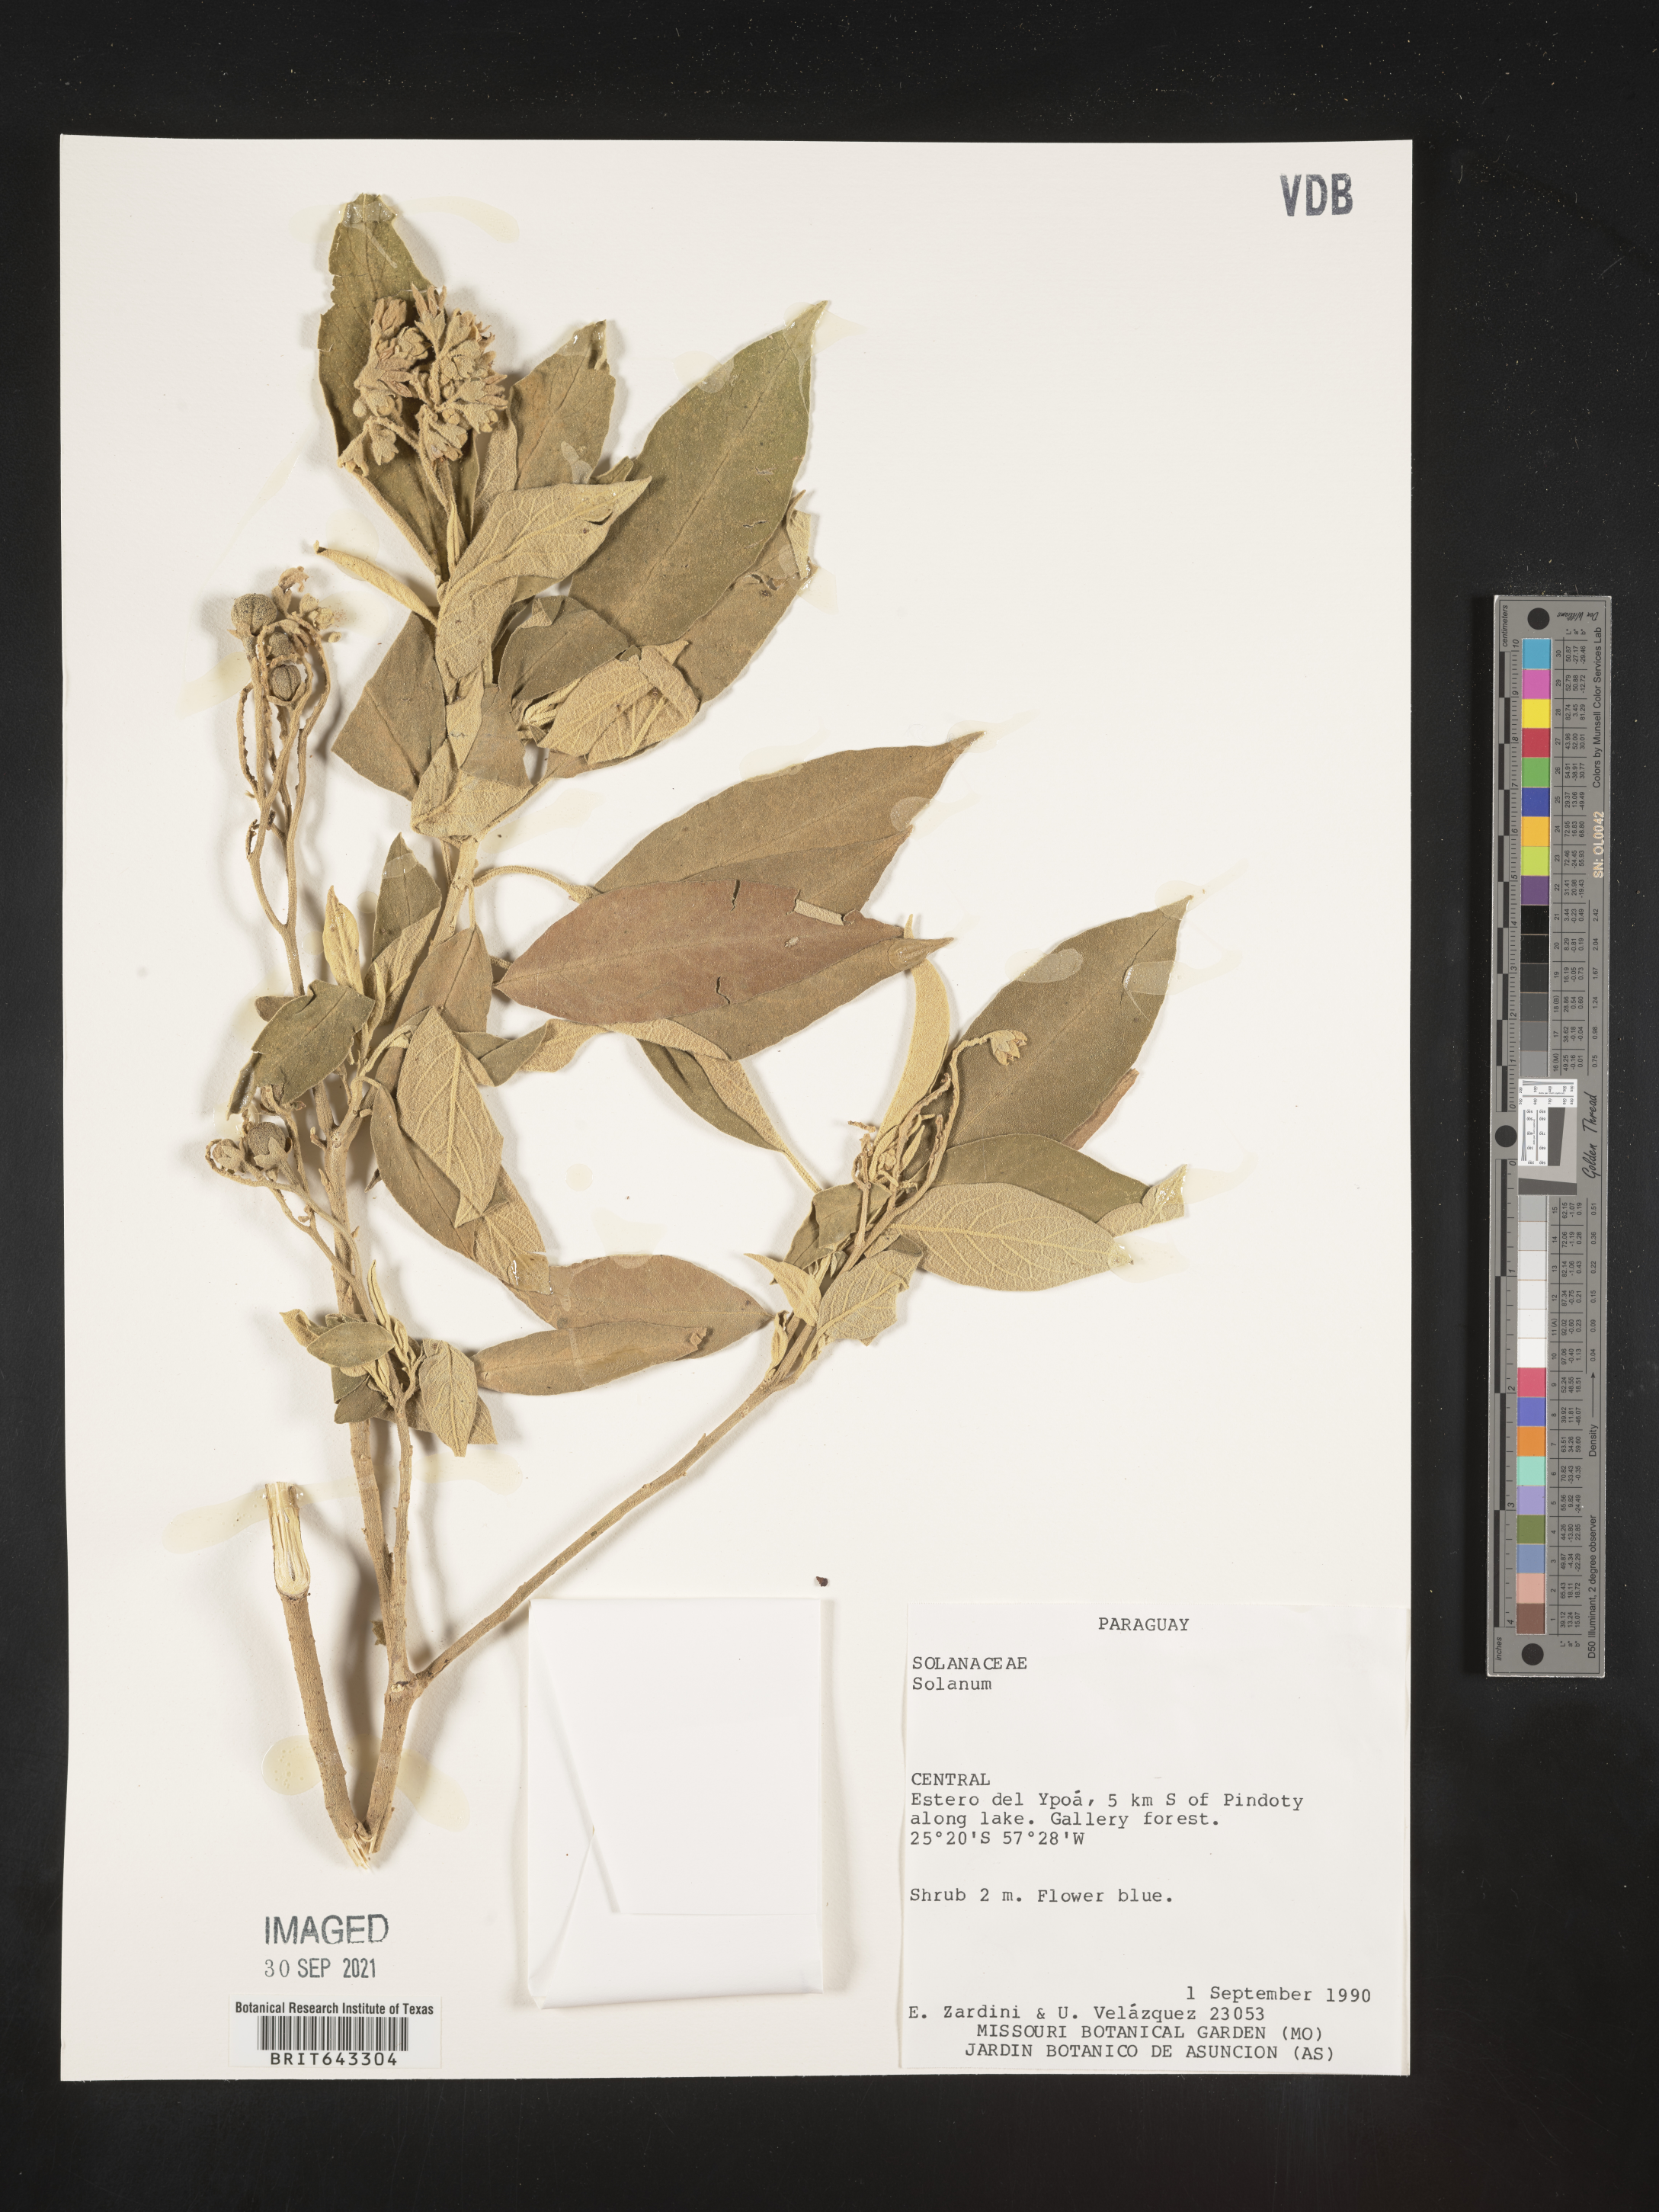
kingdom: Plantae
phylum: Tracheophyta
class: Magnoliopsida
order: Solanales
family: Solanaceae
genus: Solanum
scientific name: Solanum
